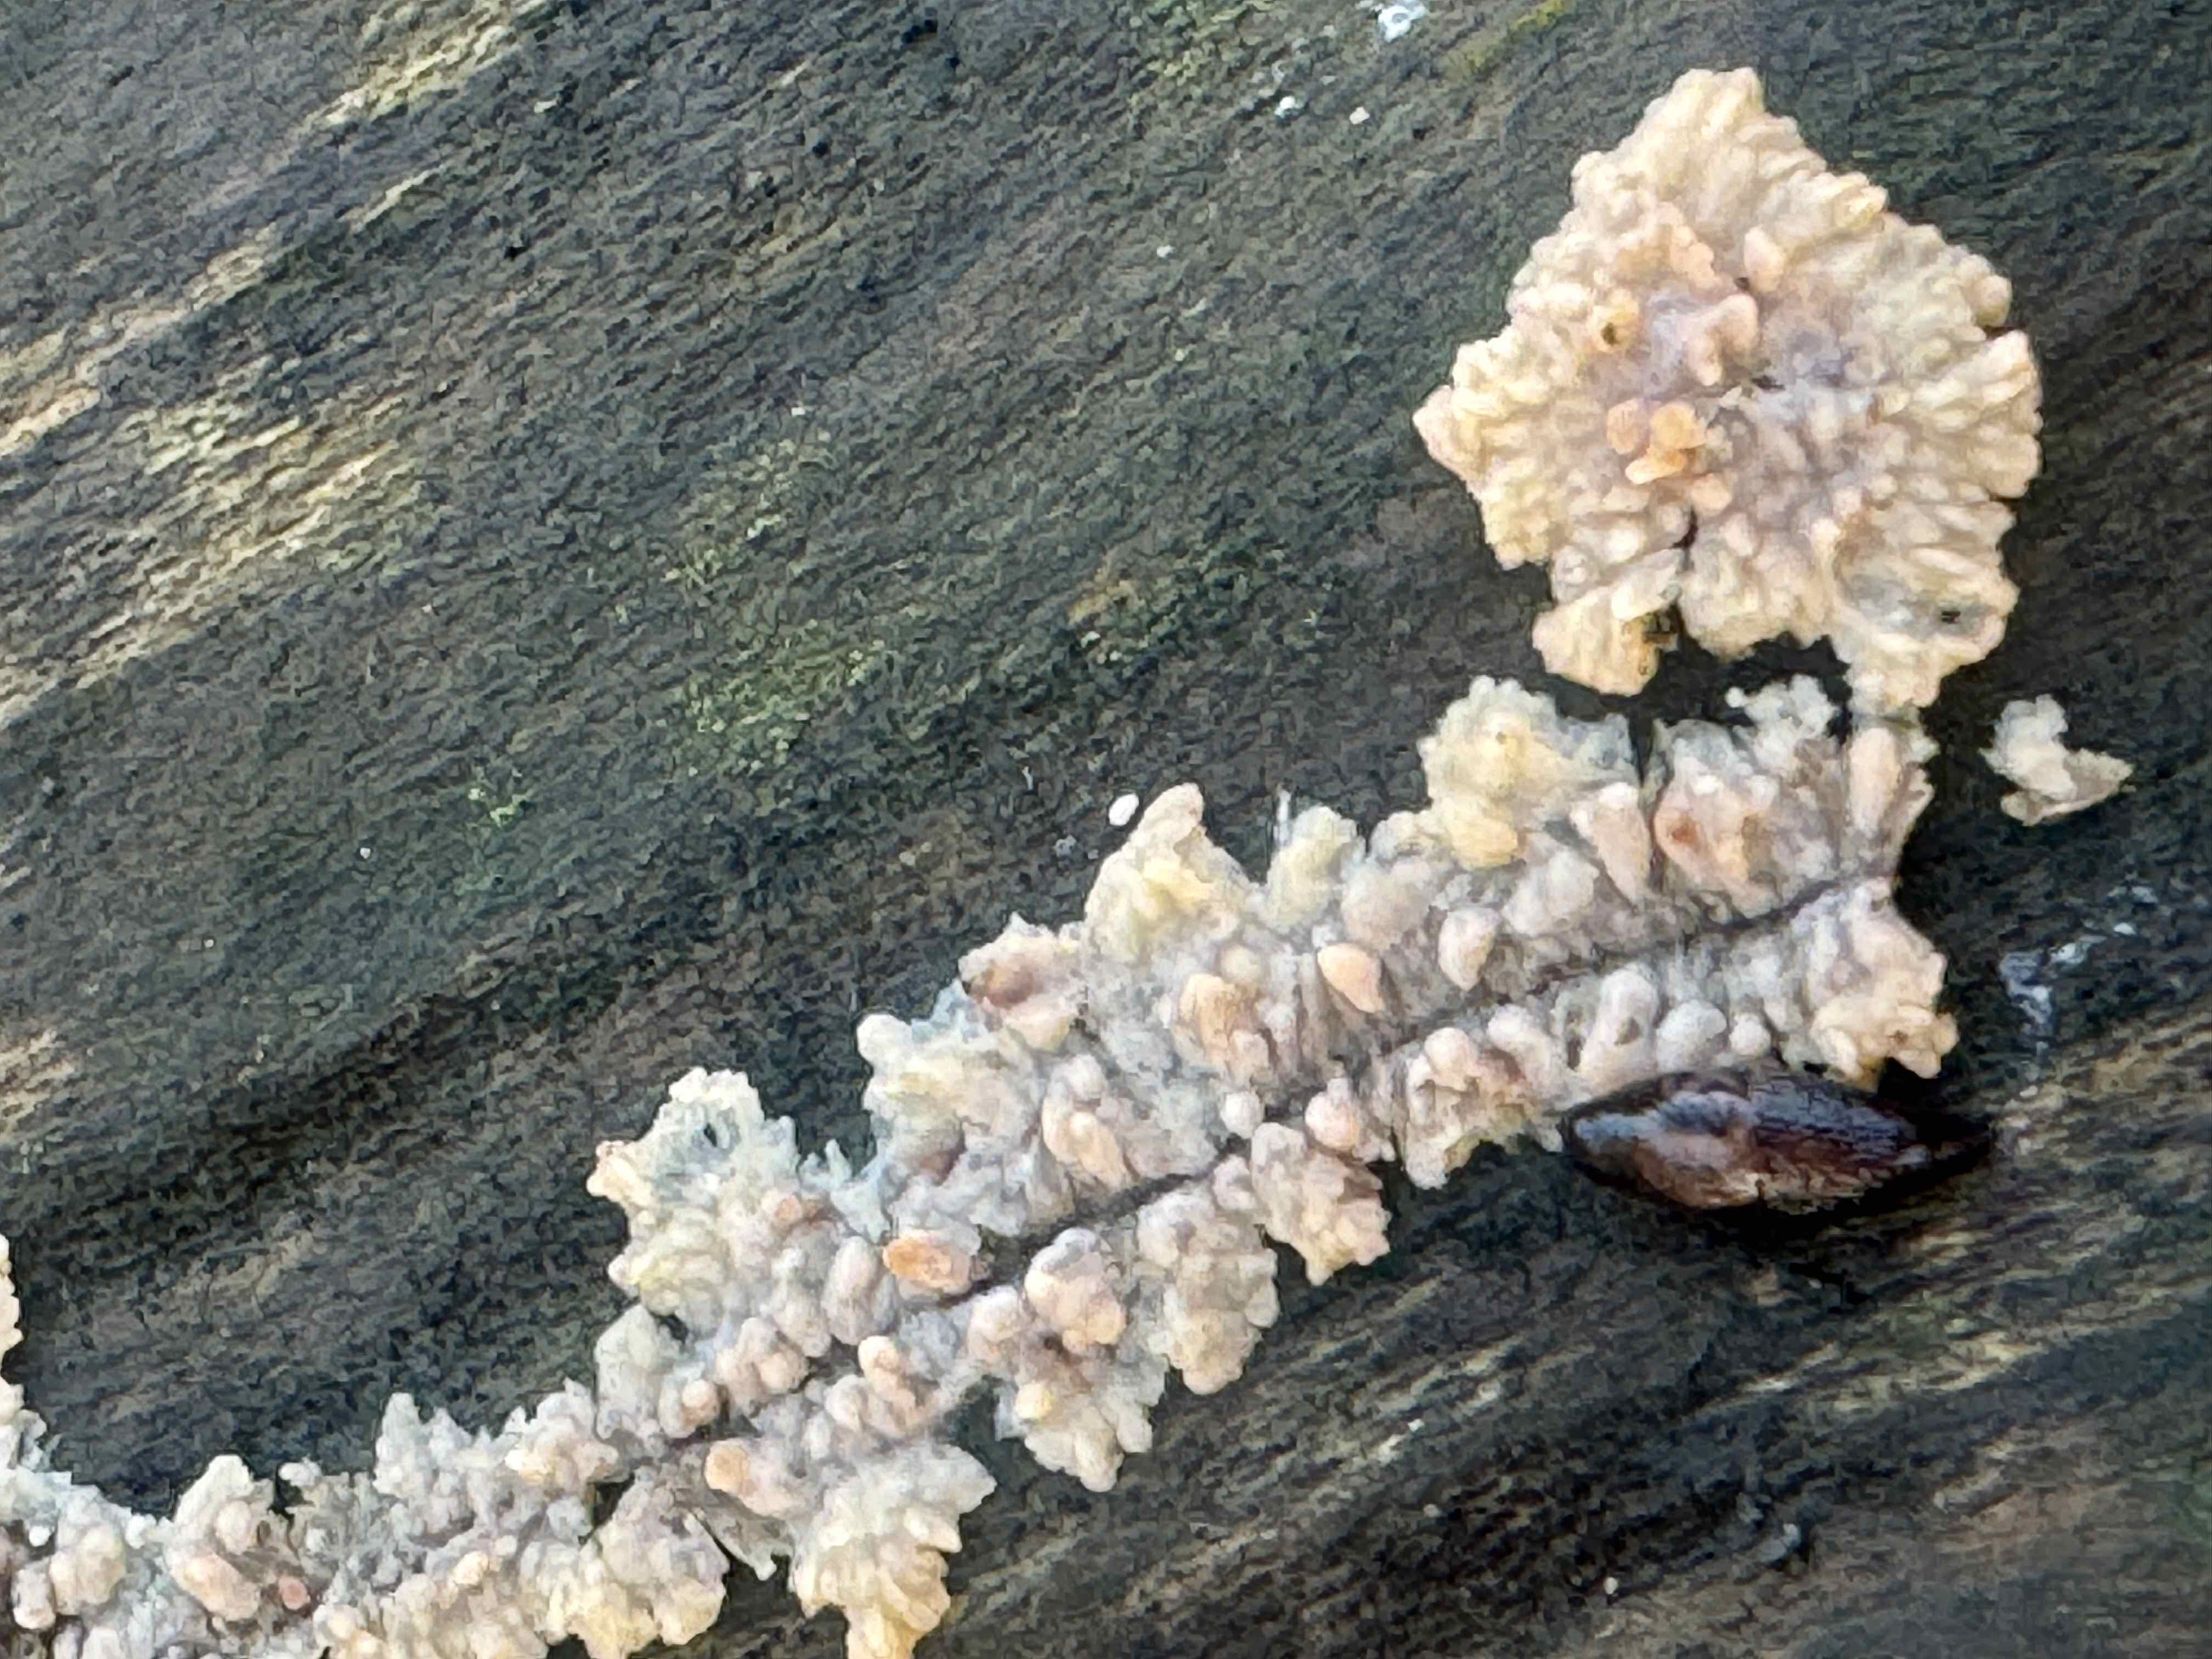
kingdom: Fungi
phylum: Basidiomycota
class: Agaricomycetes
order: Polyporales
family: Meruliaceae
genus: Phlebia
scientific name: Phlebia radiata
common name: stråle-åresvamp
